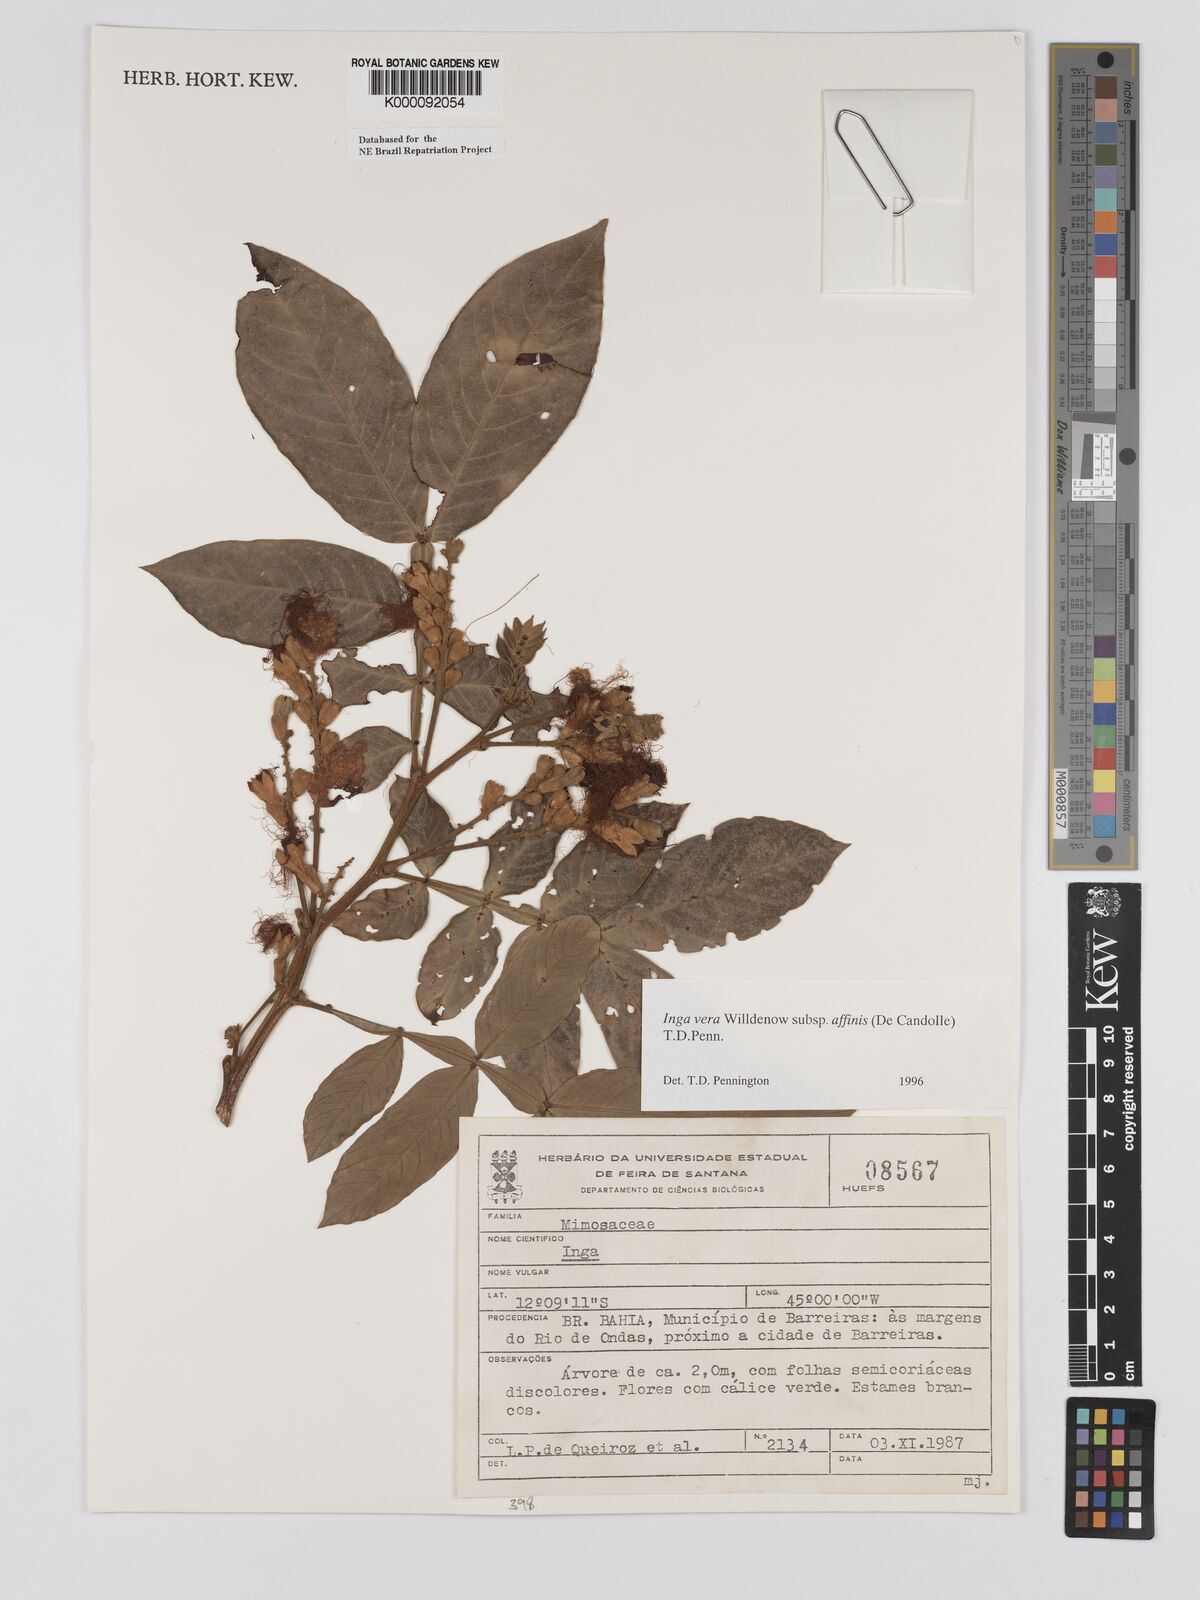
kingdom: Plantae
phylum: Tracheophyta
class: Magnoliopsida
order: Fabales
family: Fabaceae
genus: Inga
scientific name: Inga affinis
